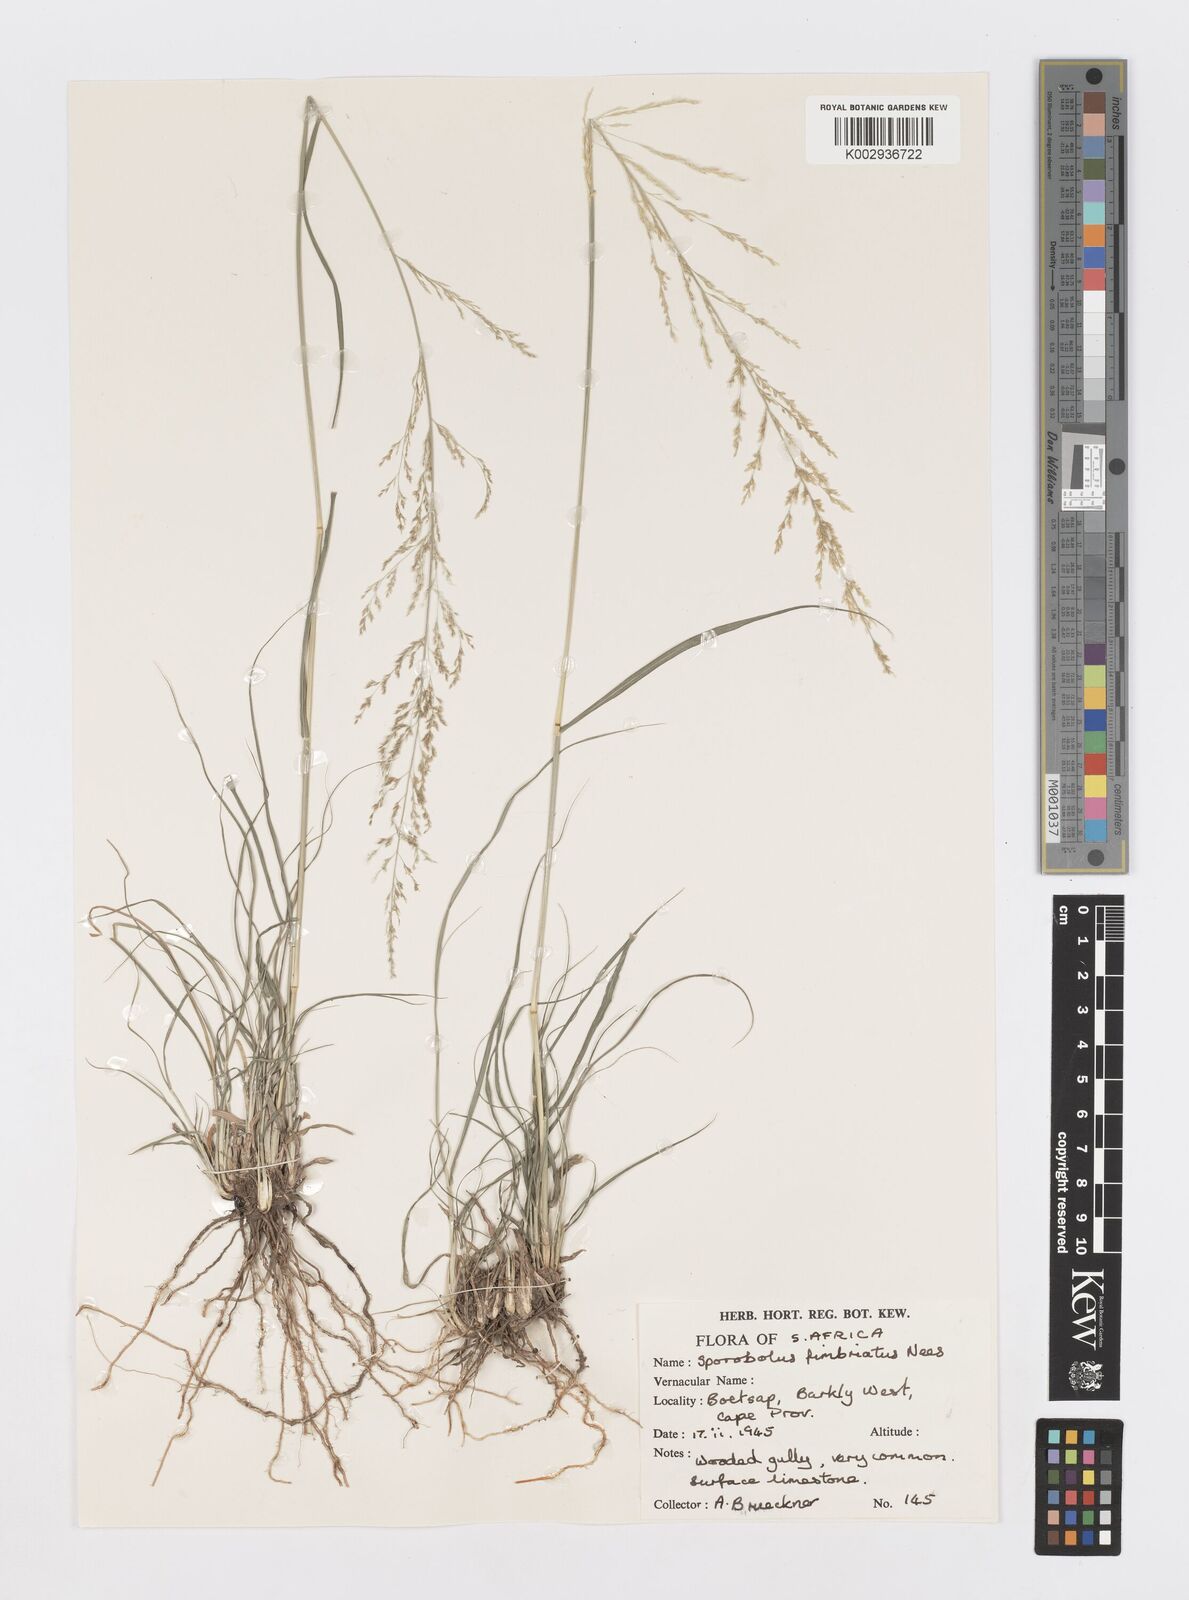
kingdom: Plantae
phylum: Tracheophyta
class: Liliopsida
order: Poales
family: Poaceae
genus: Sporobolus
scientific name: Sporobolus fimbriatus
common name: Fringed dropseed
